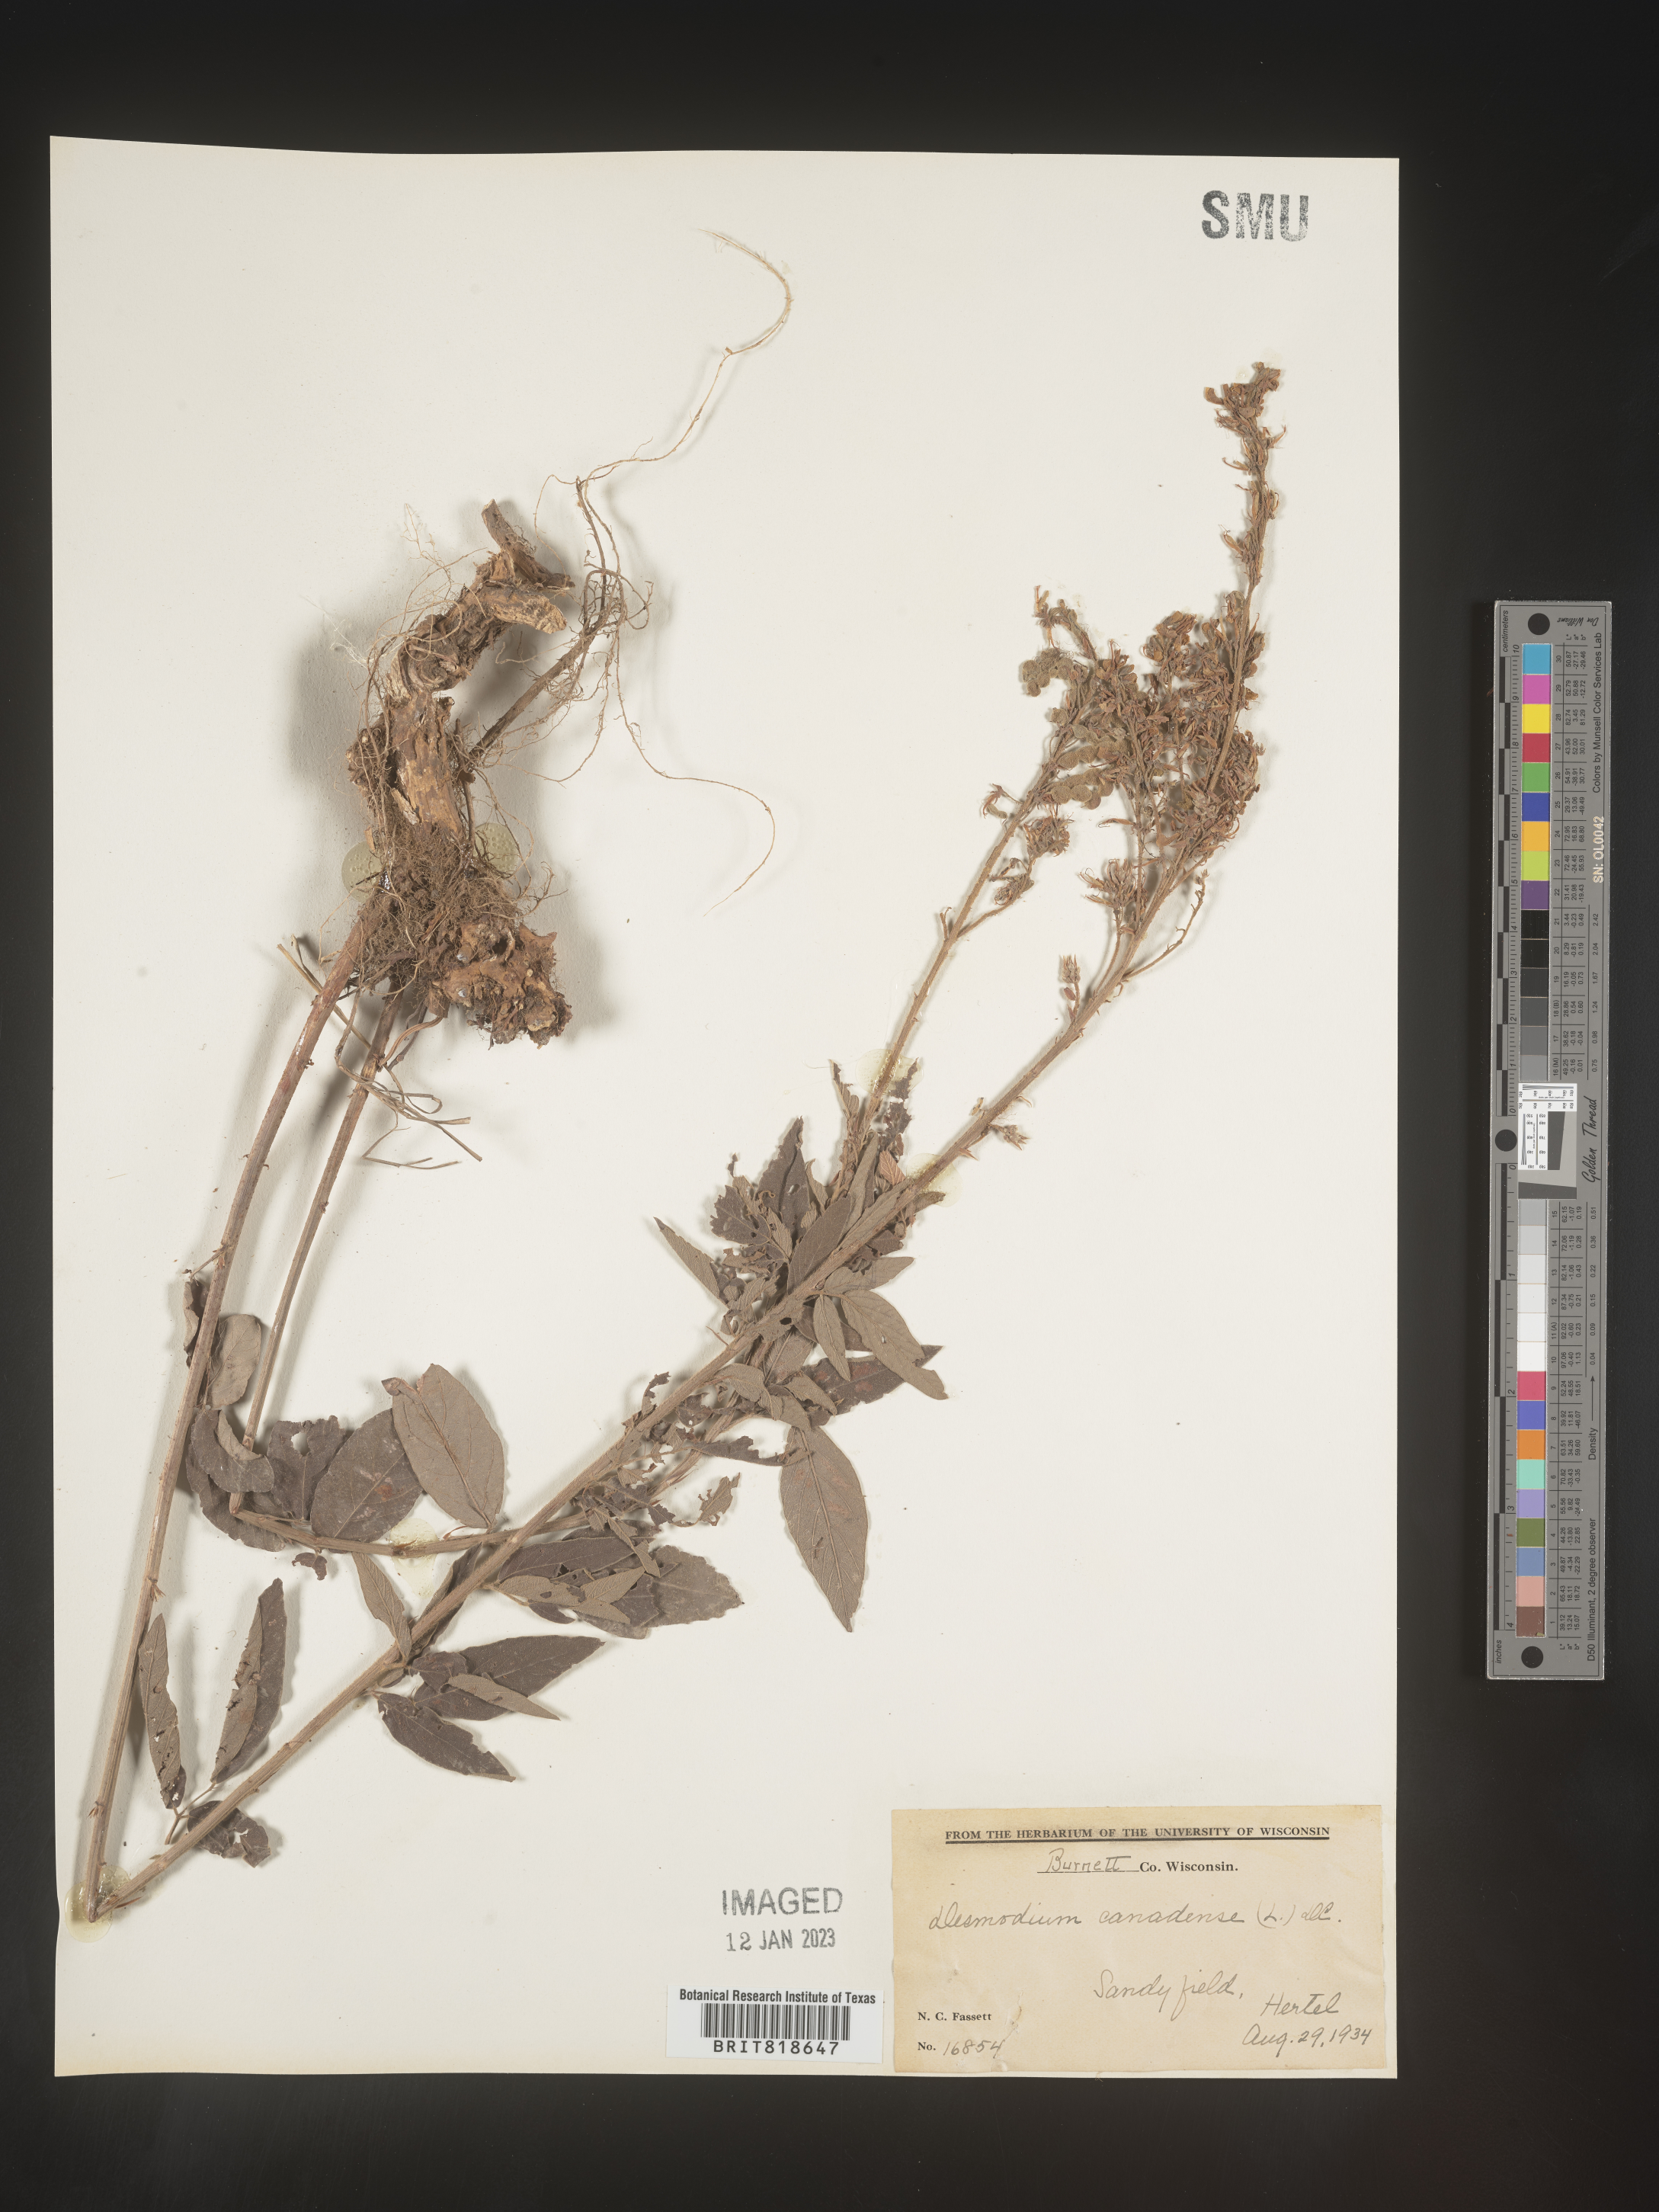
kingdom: Plantae
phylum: Tracheophyta
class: Magnoliopsida
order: Fabales
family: Fabaceae
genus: Desmodium
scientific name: Desmodium canadense
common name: Canada tick-trefoil
